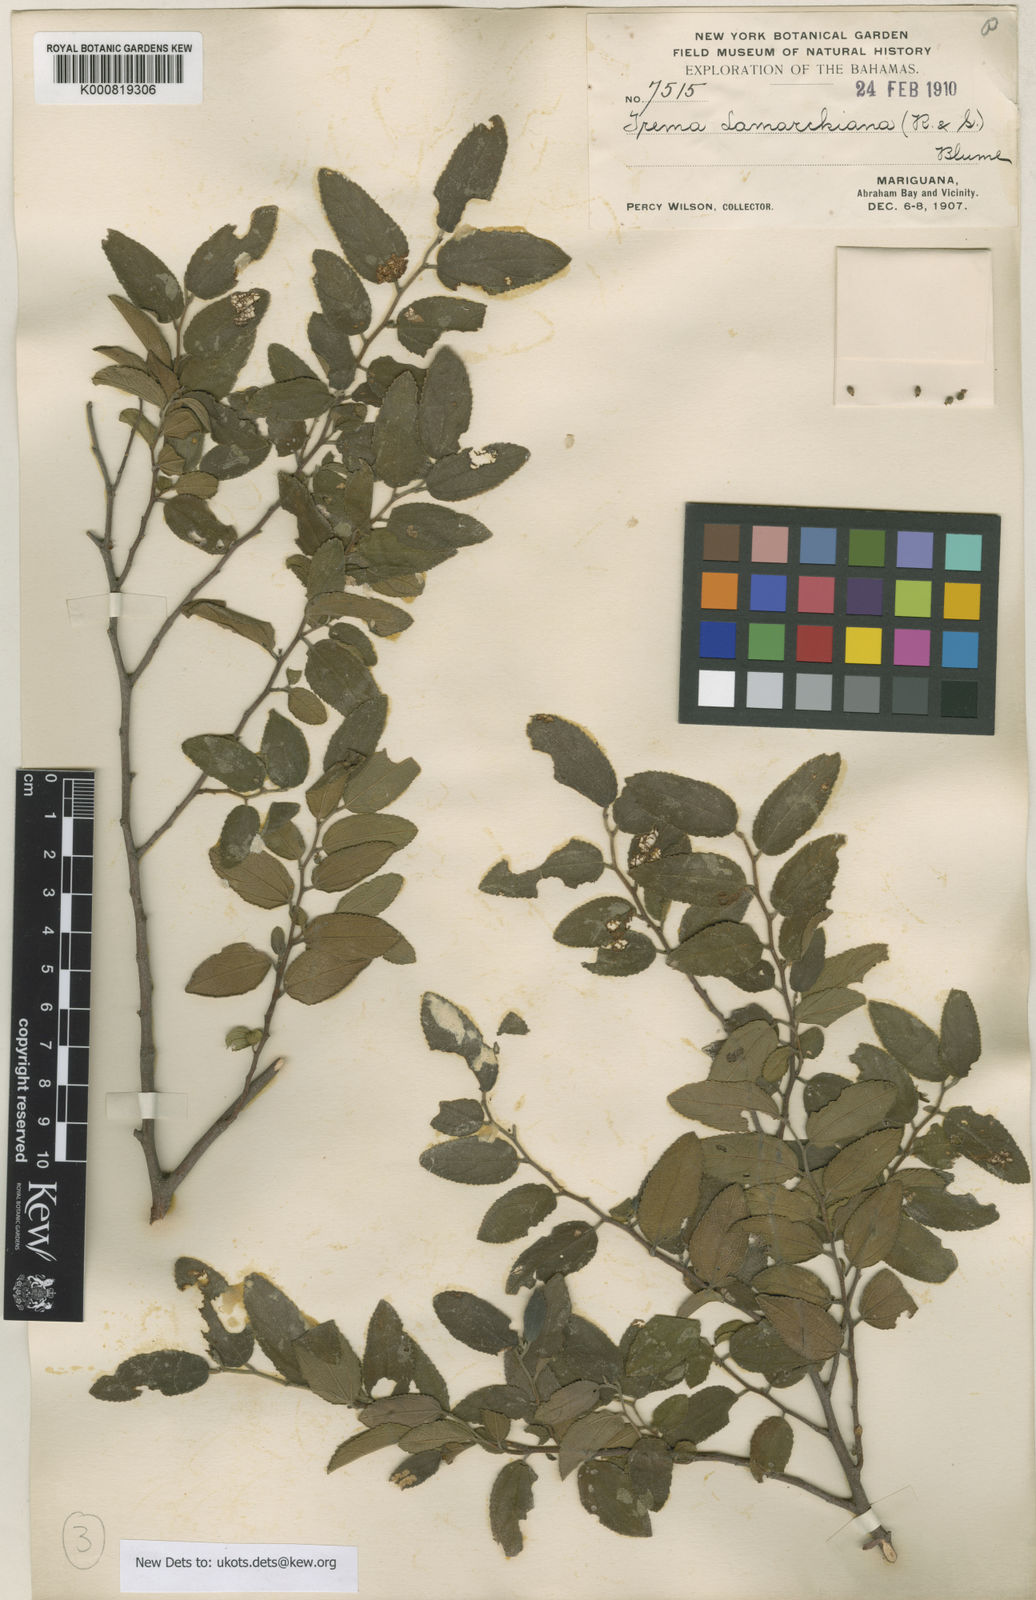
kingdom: Plantae
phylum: Tracheophyta
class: Magnoliopsida
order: Rosales
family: Cannabaceae
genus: Trema
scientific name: Trema lamarckianum
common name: Lamarck's trema
